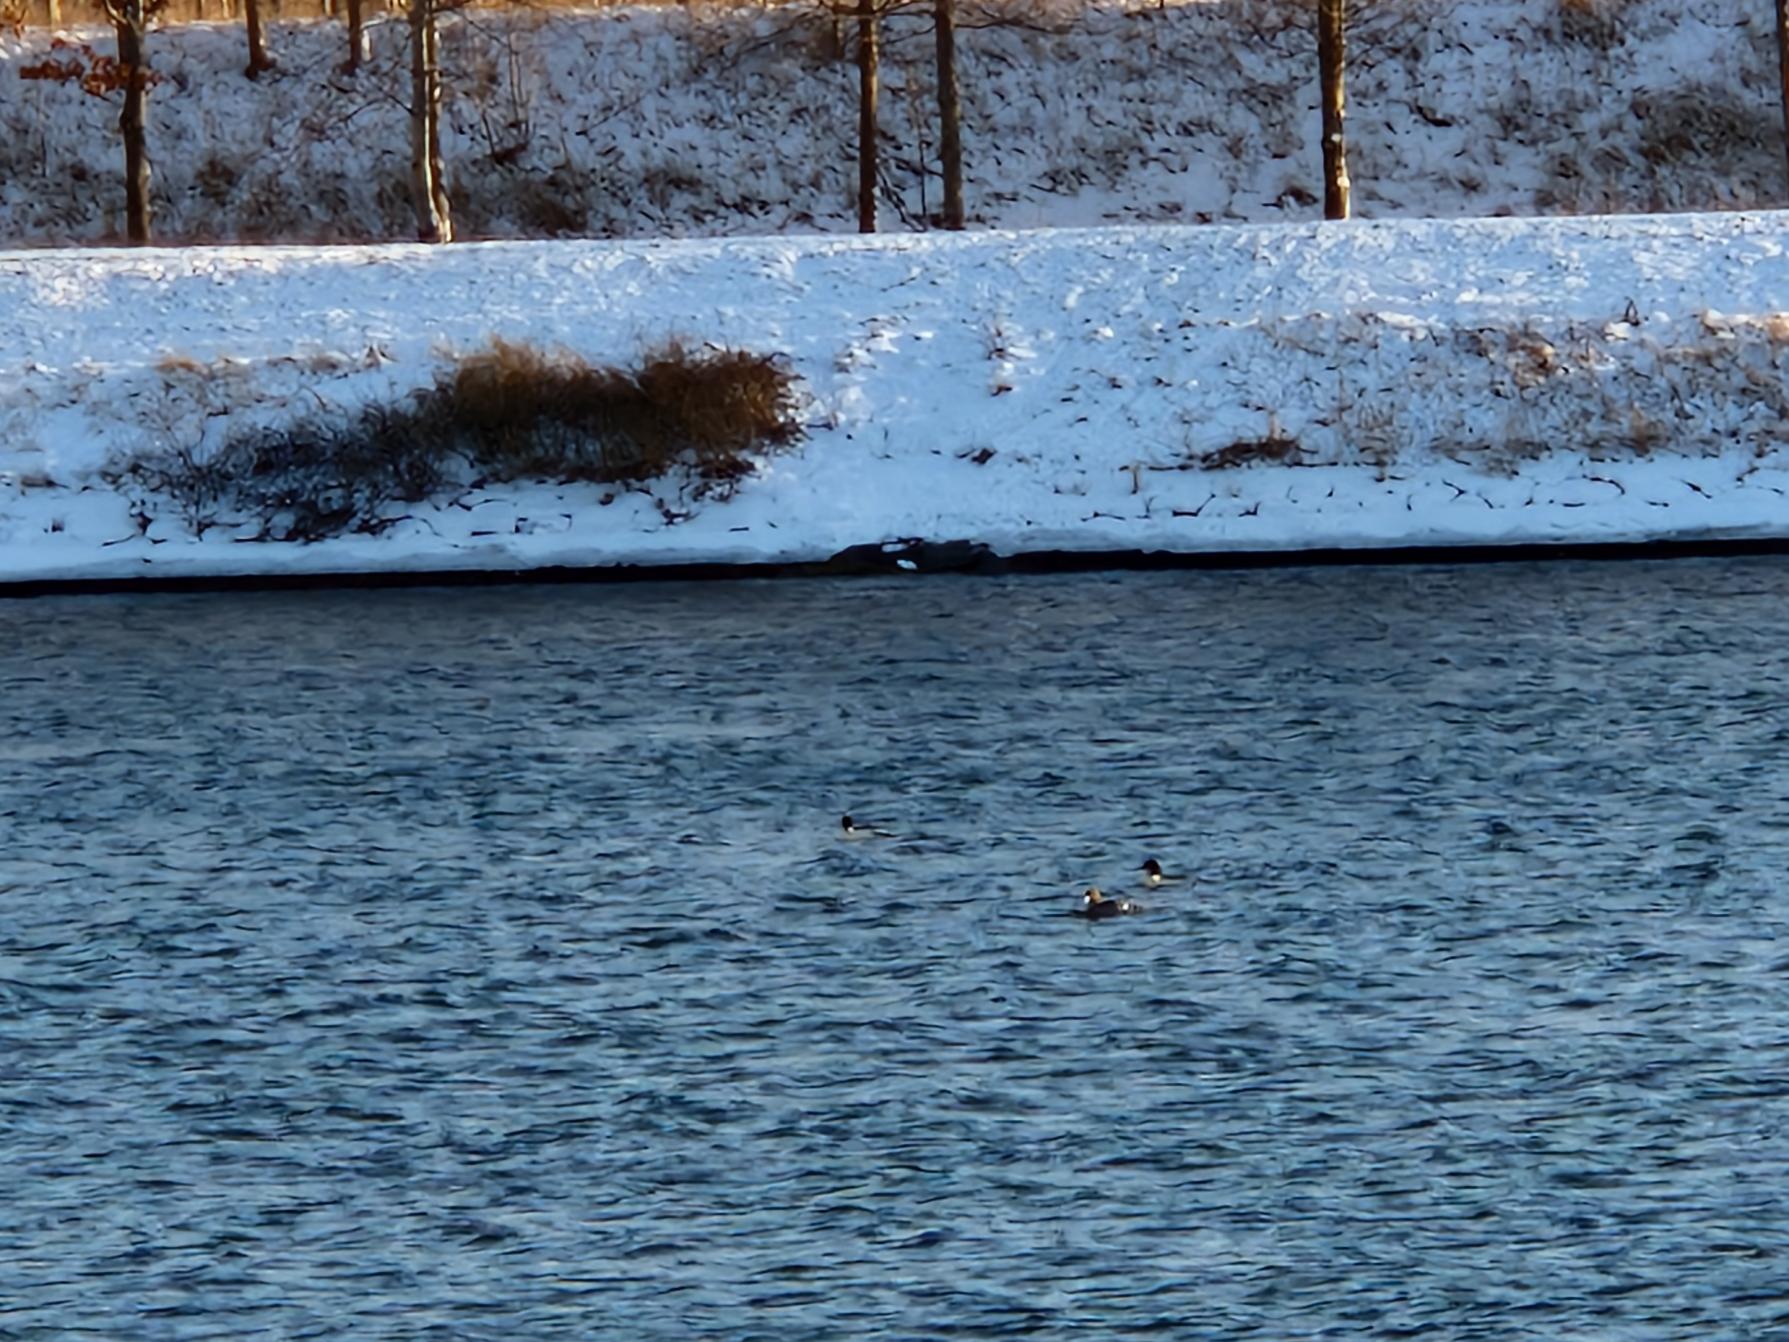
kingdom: Animalia
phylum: Chordata
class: Aves
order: Anseriformes
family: Anatidae
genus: Mergus
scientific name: Mergus merganser
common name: Stor skallesluger
